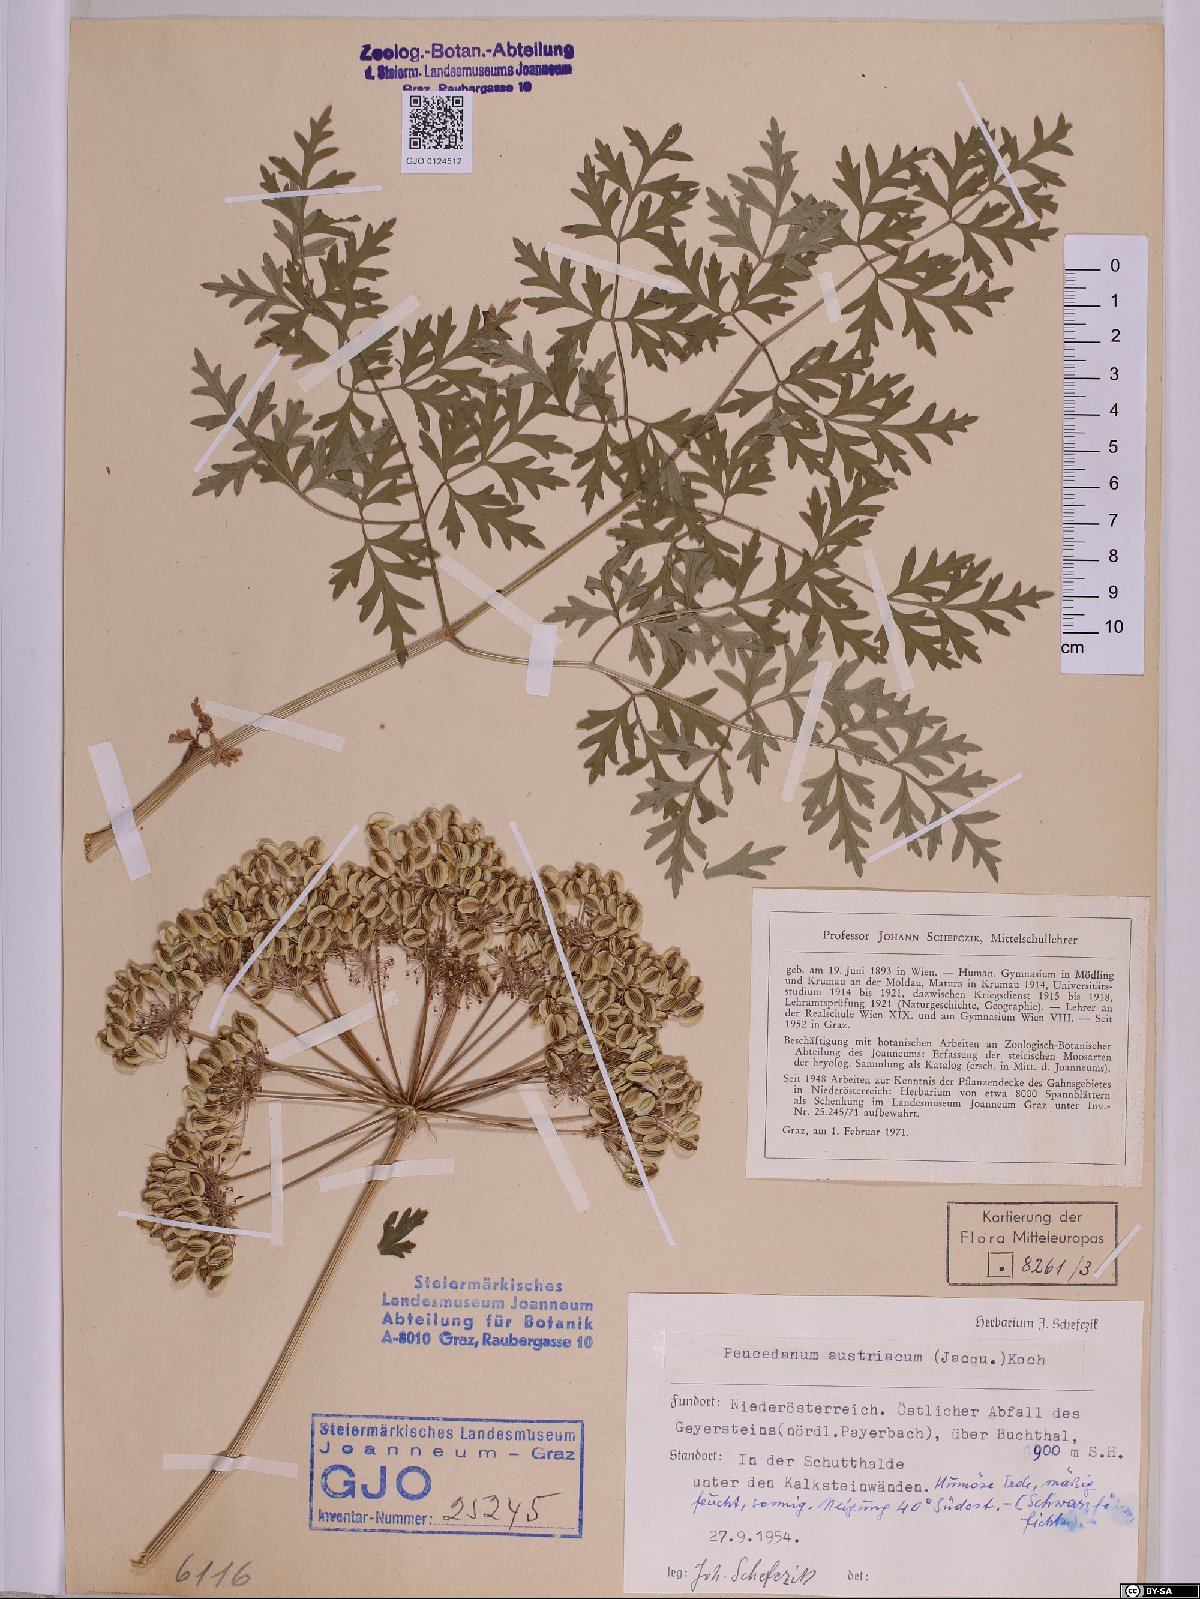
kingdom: Plantae
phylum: Tracheophyta
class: Magnoliopsida
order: Apiales
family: Apiaceae
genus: Peucedanum
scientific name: Peucedanum austriacum
